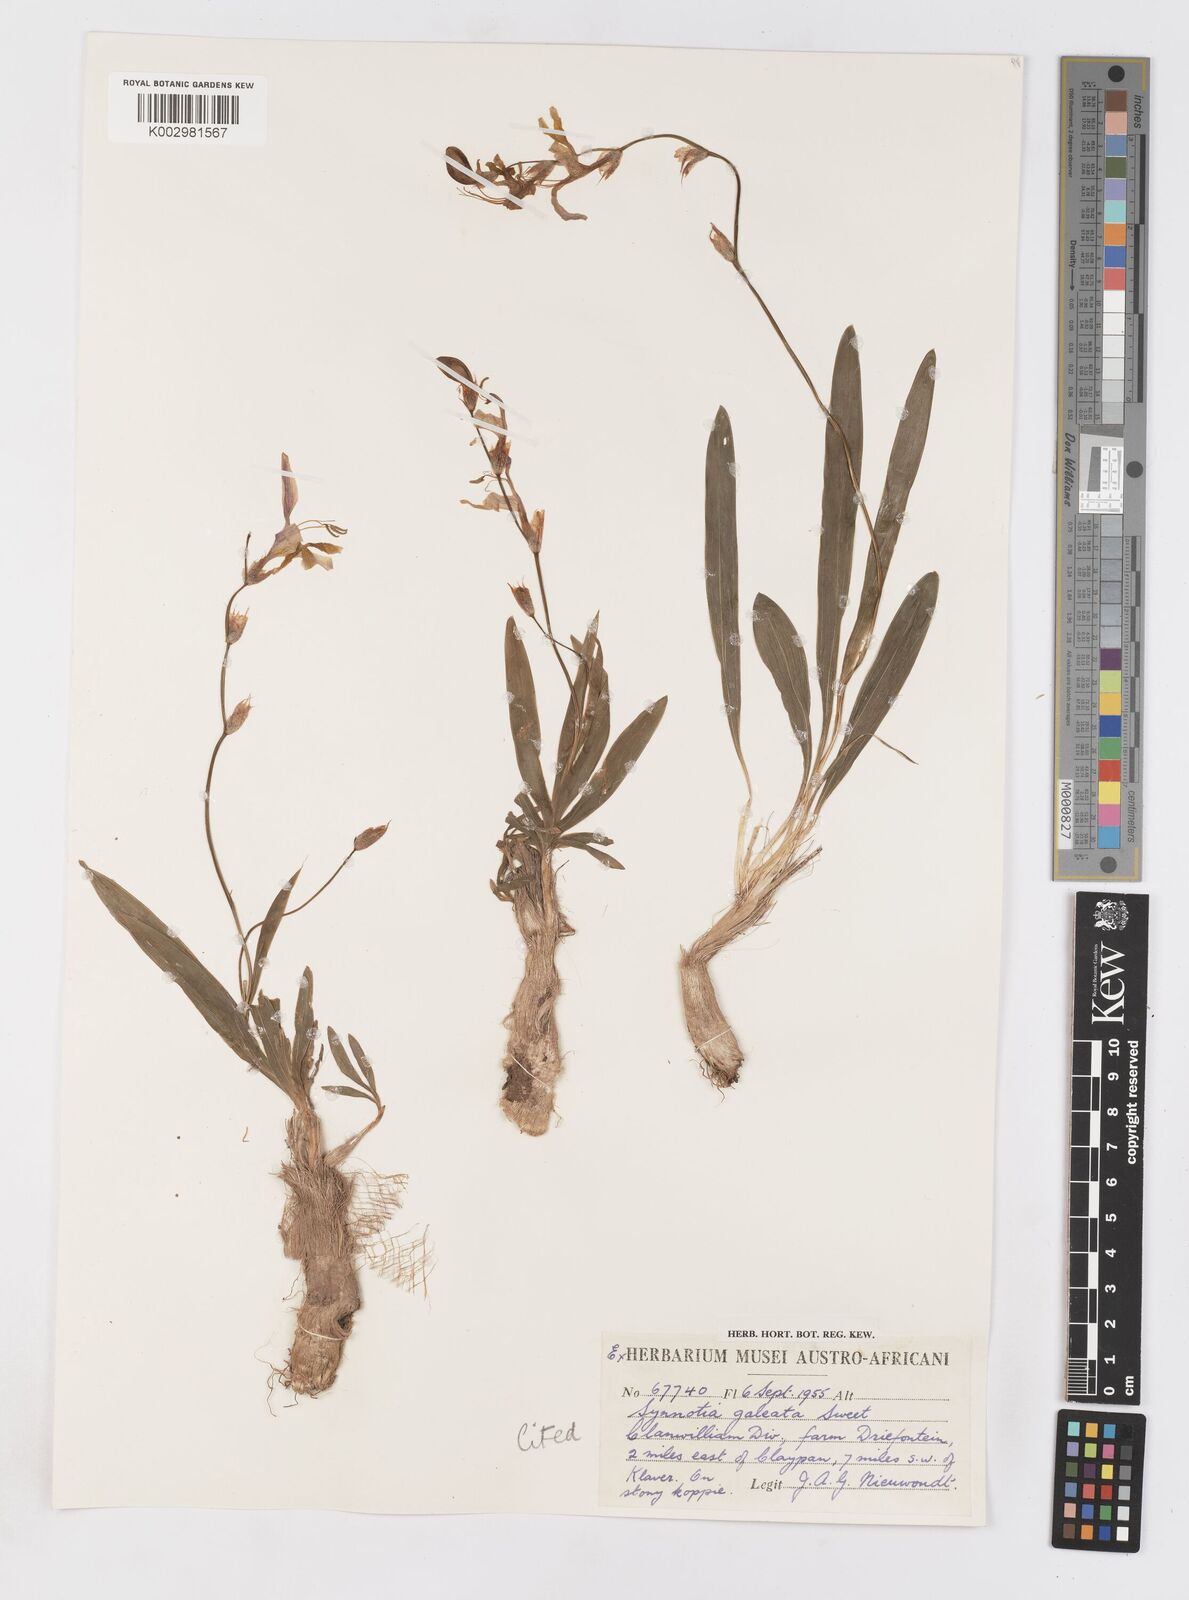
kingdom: Plantae
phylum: Tracheophyta
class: Liliopsida
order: Asparagales
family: Iridaceae
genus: Sparaxis
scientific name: Sparaxis
